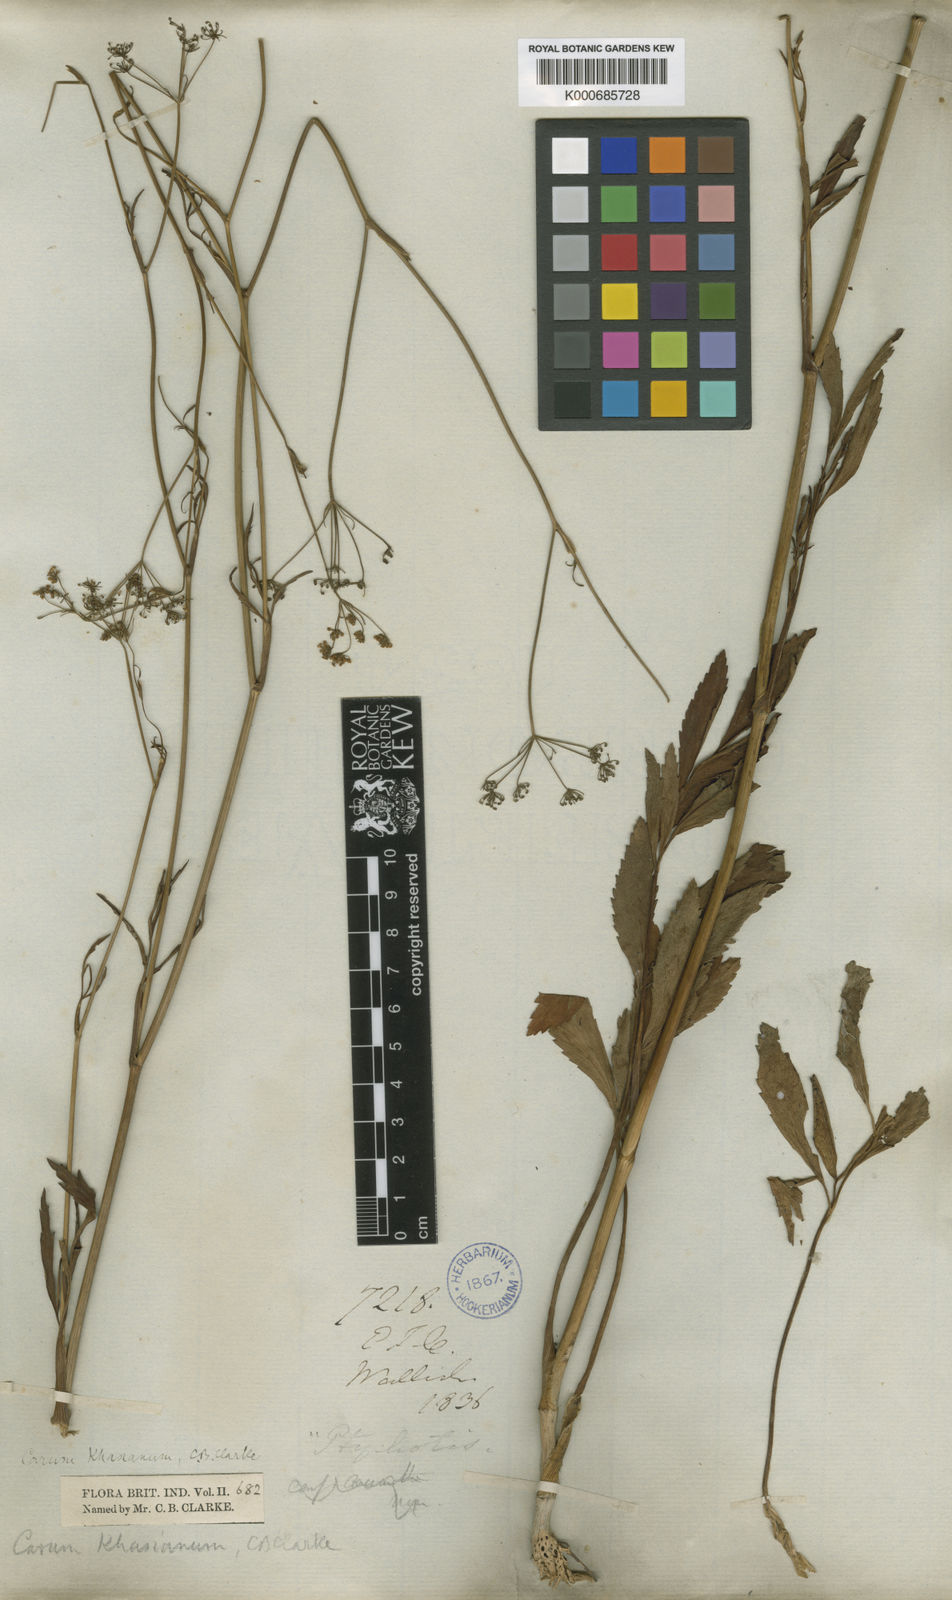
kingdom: Plantae
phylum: Tracheophyta
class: Magnoliopsida
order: Apiales
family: Apiaceae
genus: Trachyspermum
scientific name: Trachyspermum khasianum
